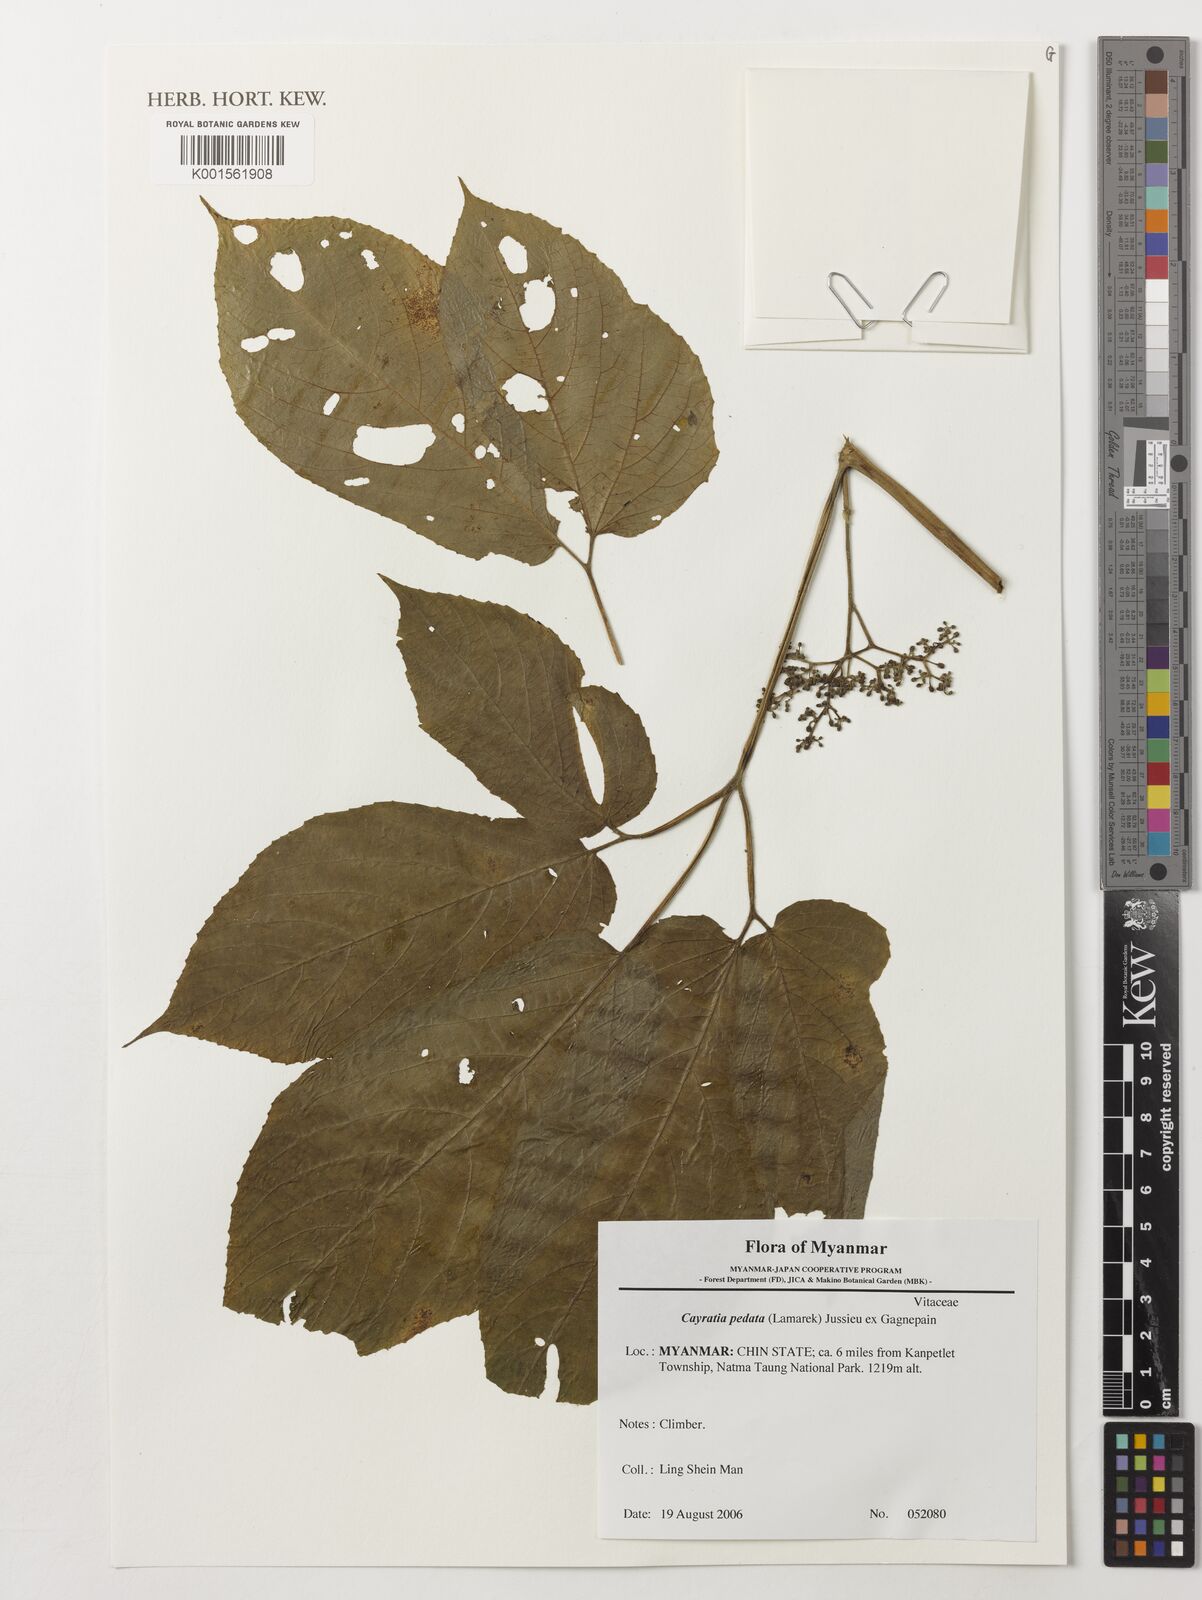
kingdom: Plantae
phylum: Tracheophyta
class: Magnoliopsida
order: Vitales
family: Vitaceae
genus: Cayratia
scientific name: Cayratia pedata
